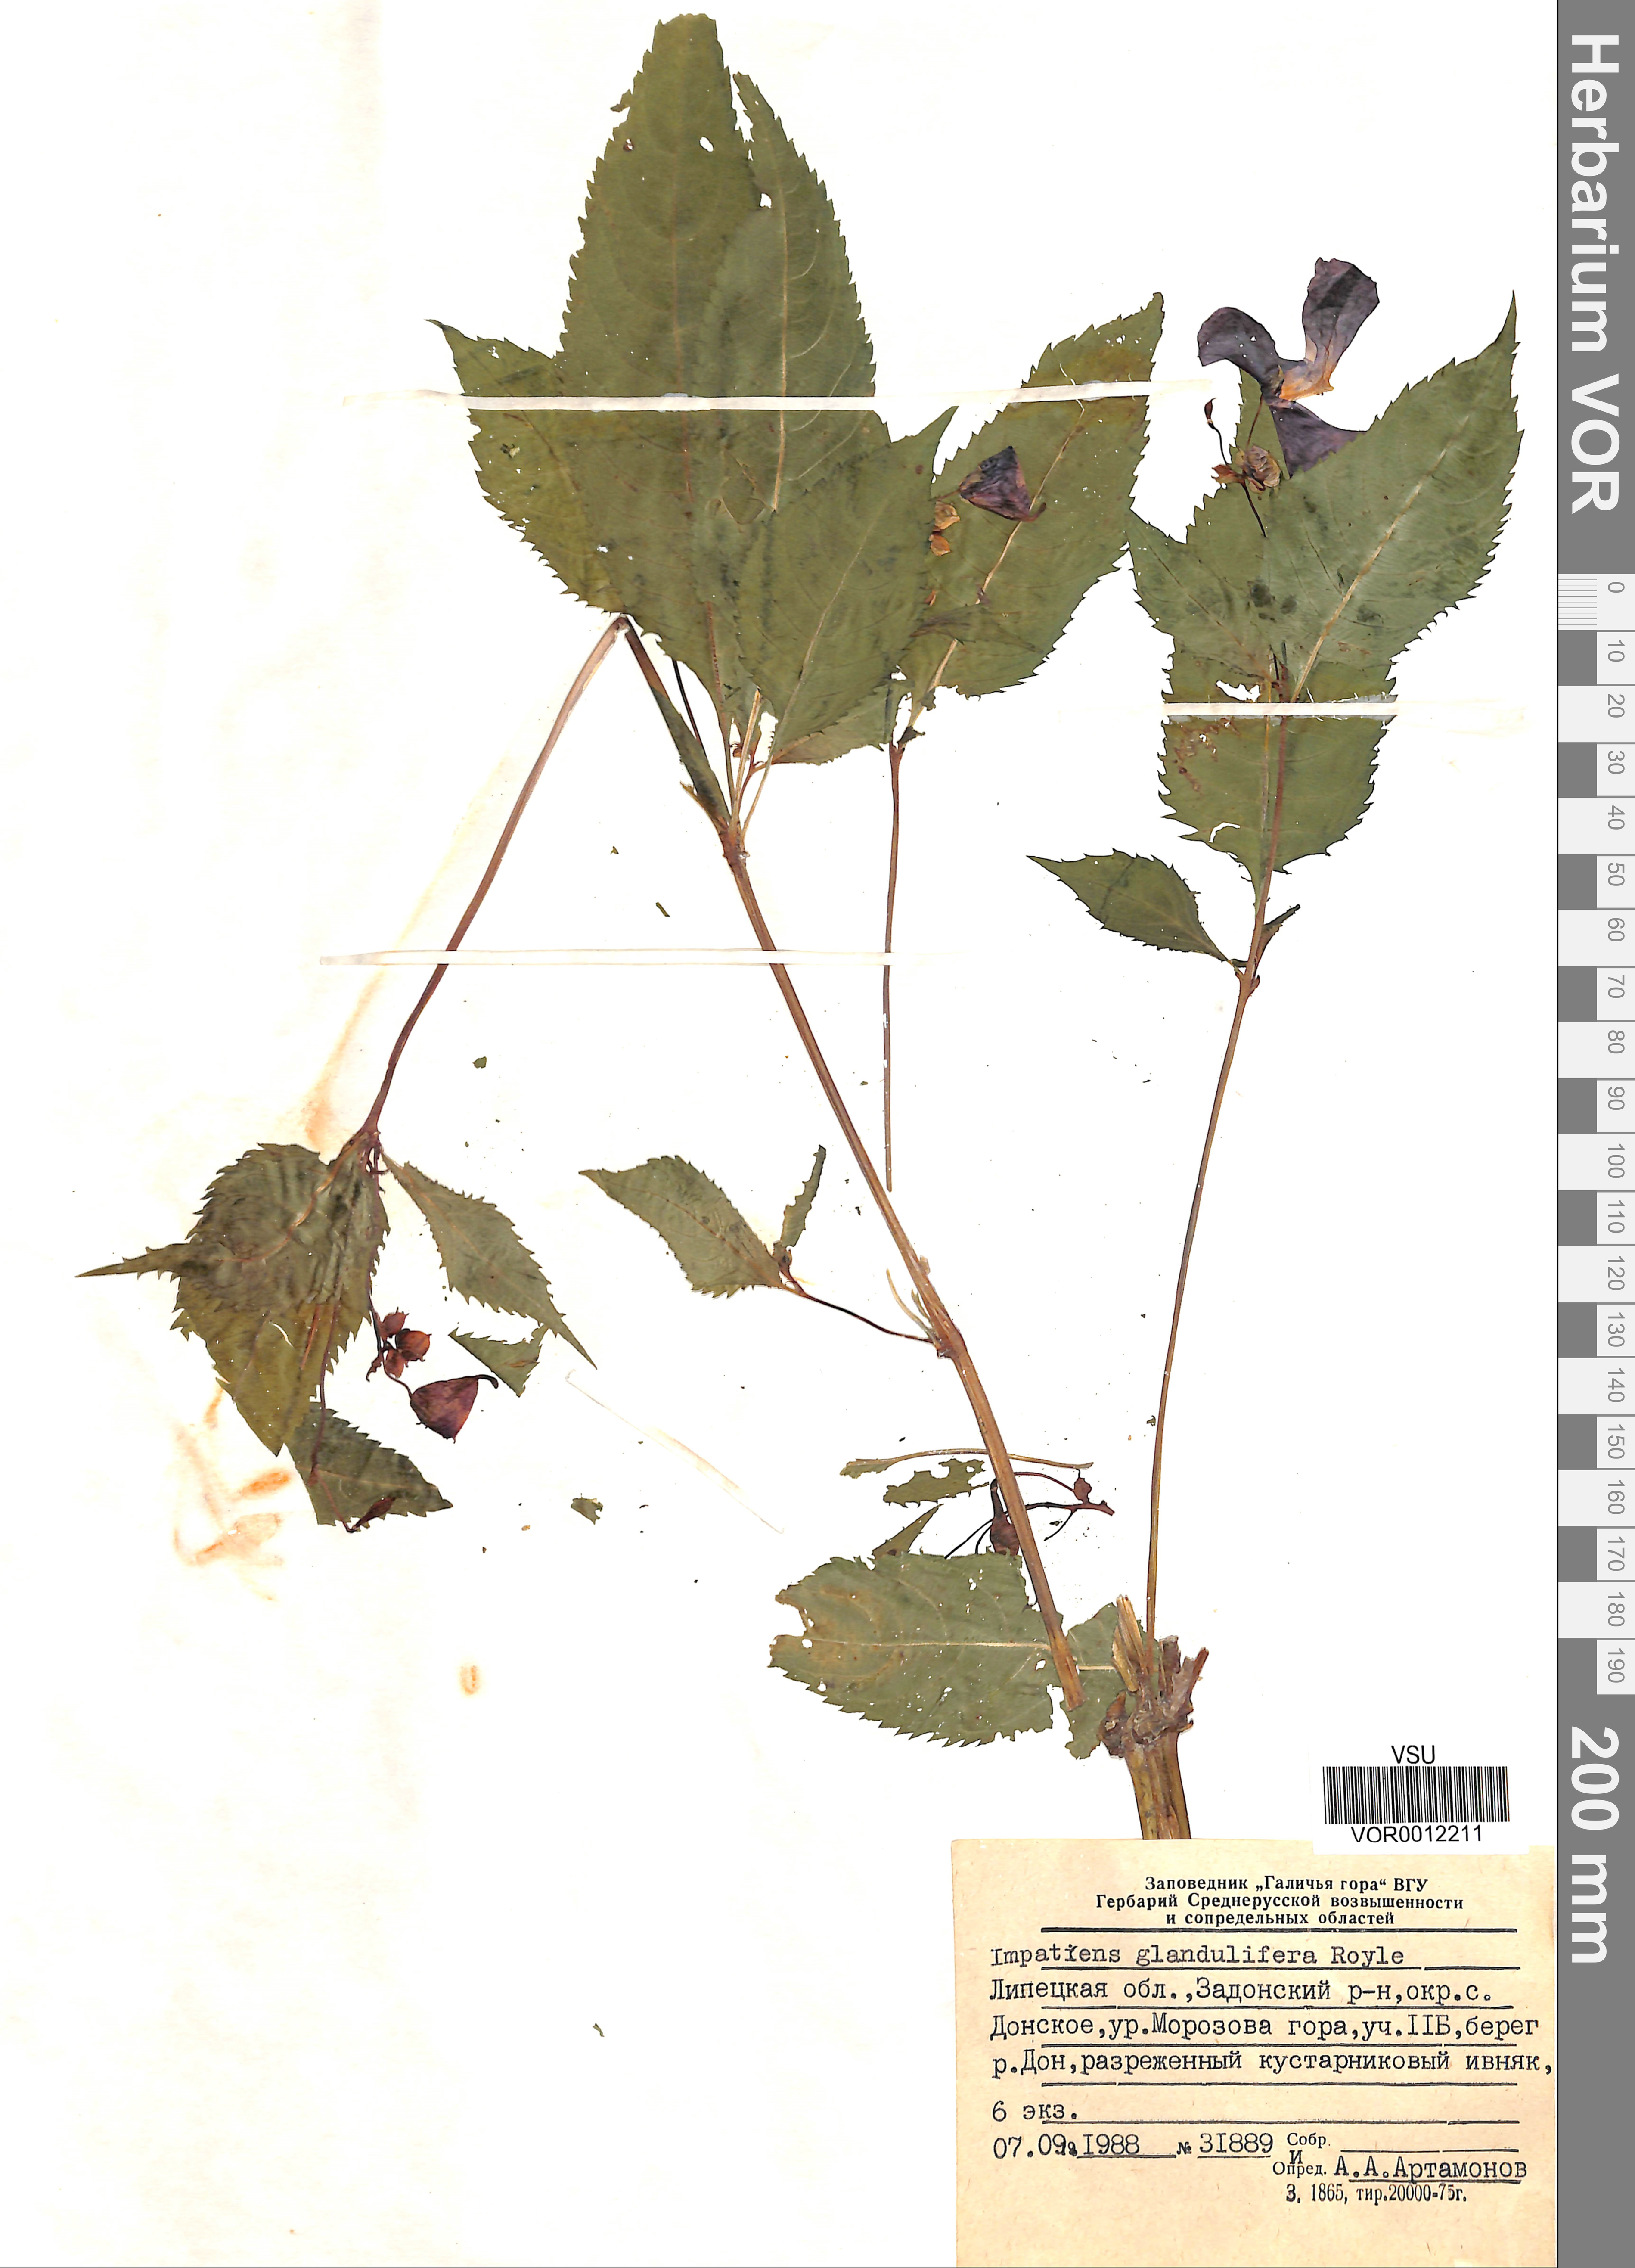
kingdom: Plantae
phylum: Tracheophyta
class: Magnoliopsida
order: Ericales
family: Balsaminaceae
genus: Impatiens
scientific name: Impatiens glandulifera
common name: Himalayan balsam
